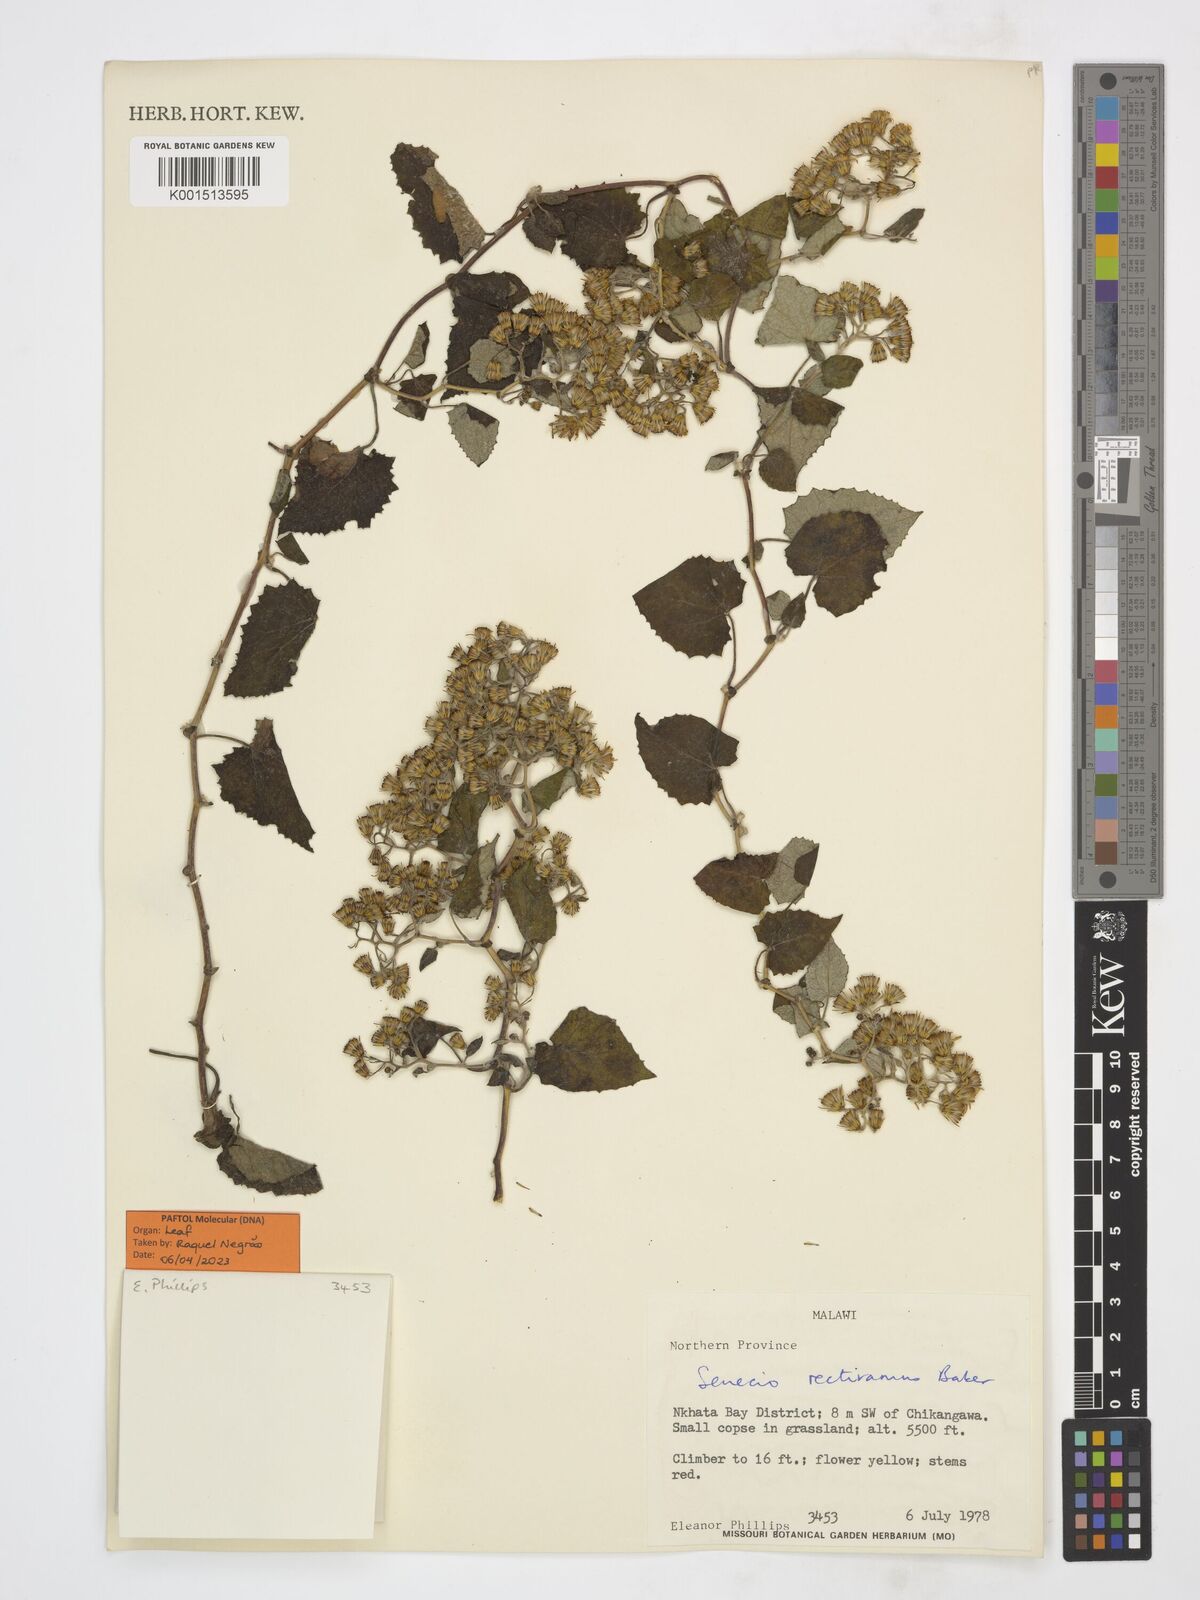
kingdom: Plantae
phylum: Tracheophyta
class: Magnoliopsida
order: Asterales
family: Asteraceae
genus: Austrosynotis
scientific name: Austrosynotis rectirama
